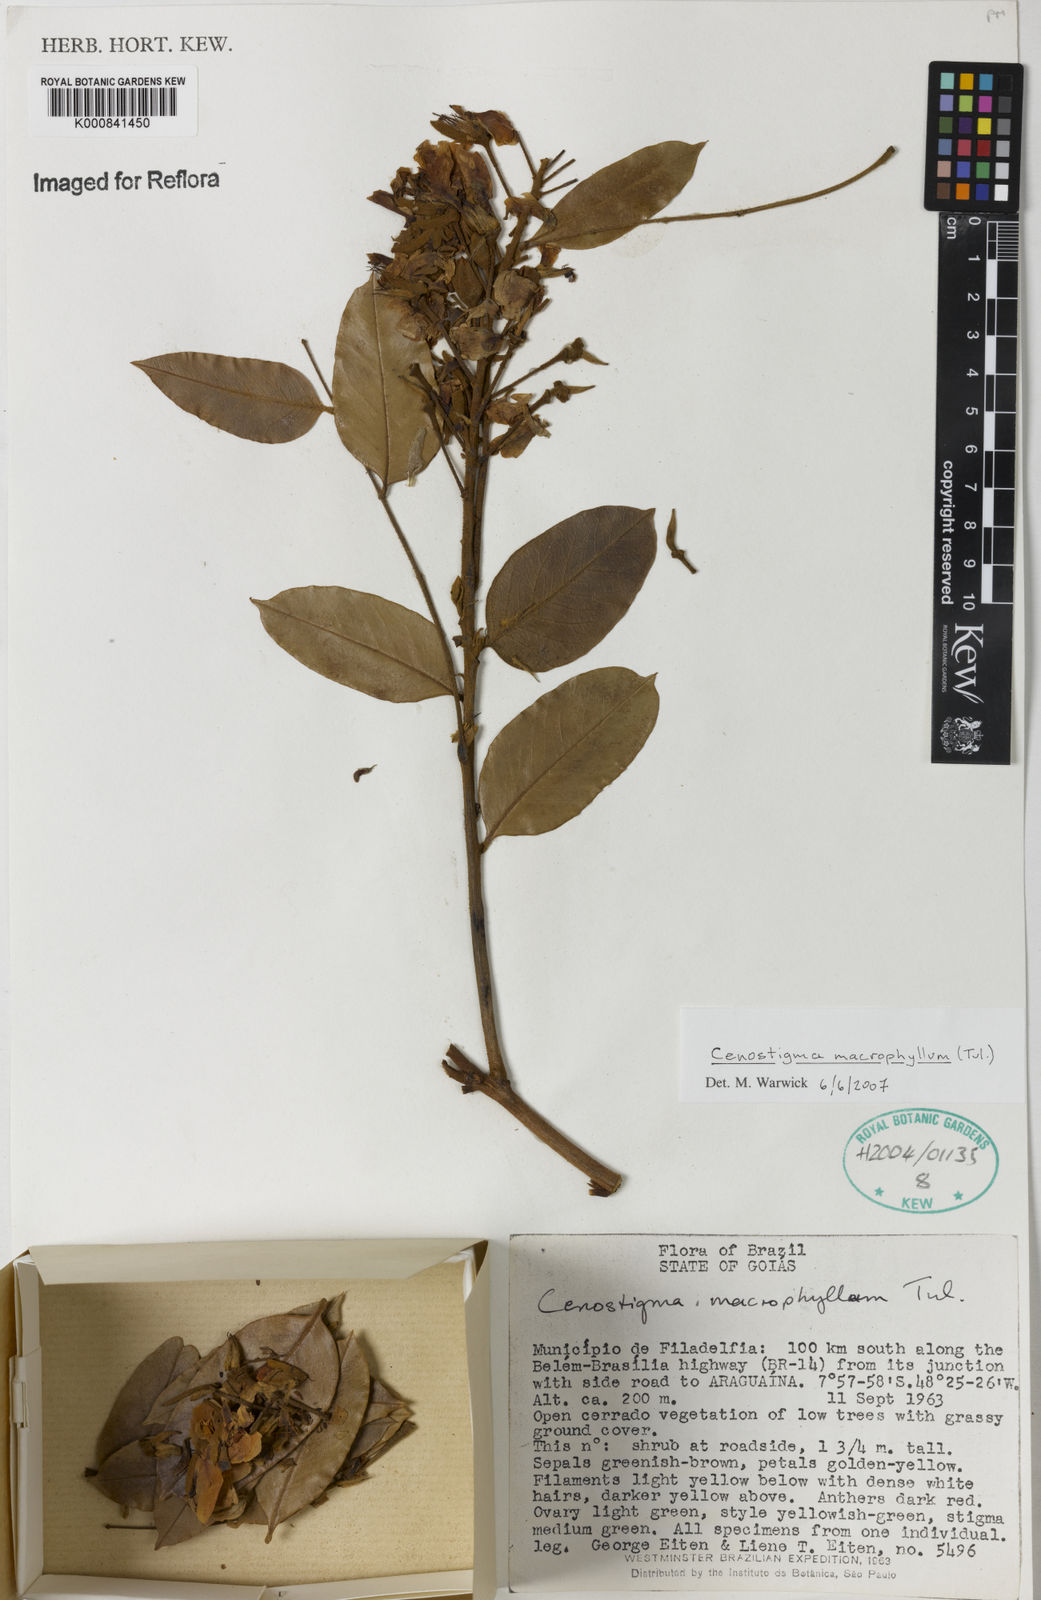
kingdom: Plantae
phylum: Tracheophyta
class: Magnoliopsida
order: Fabales
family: Fabaceae
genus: Cenostigma
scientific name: Cenostigma macrophyllum
